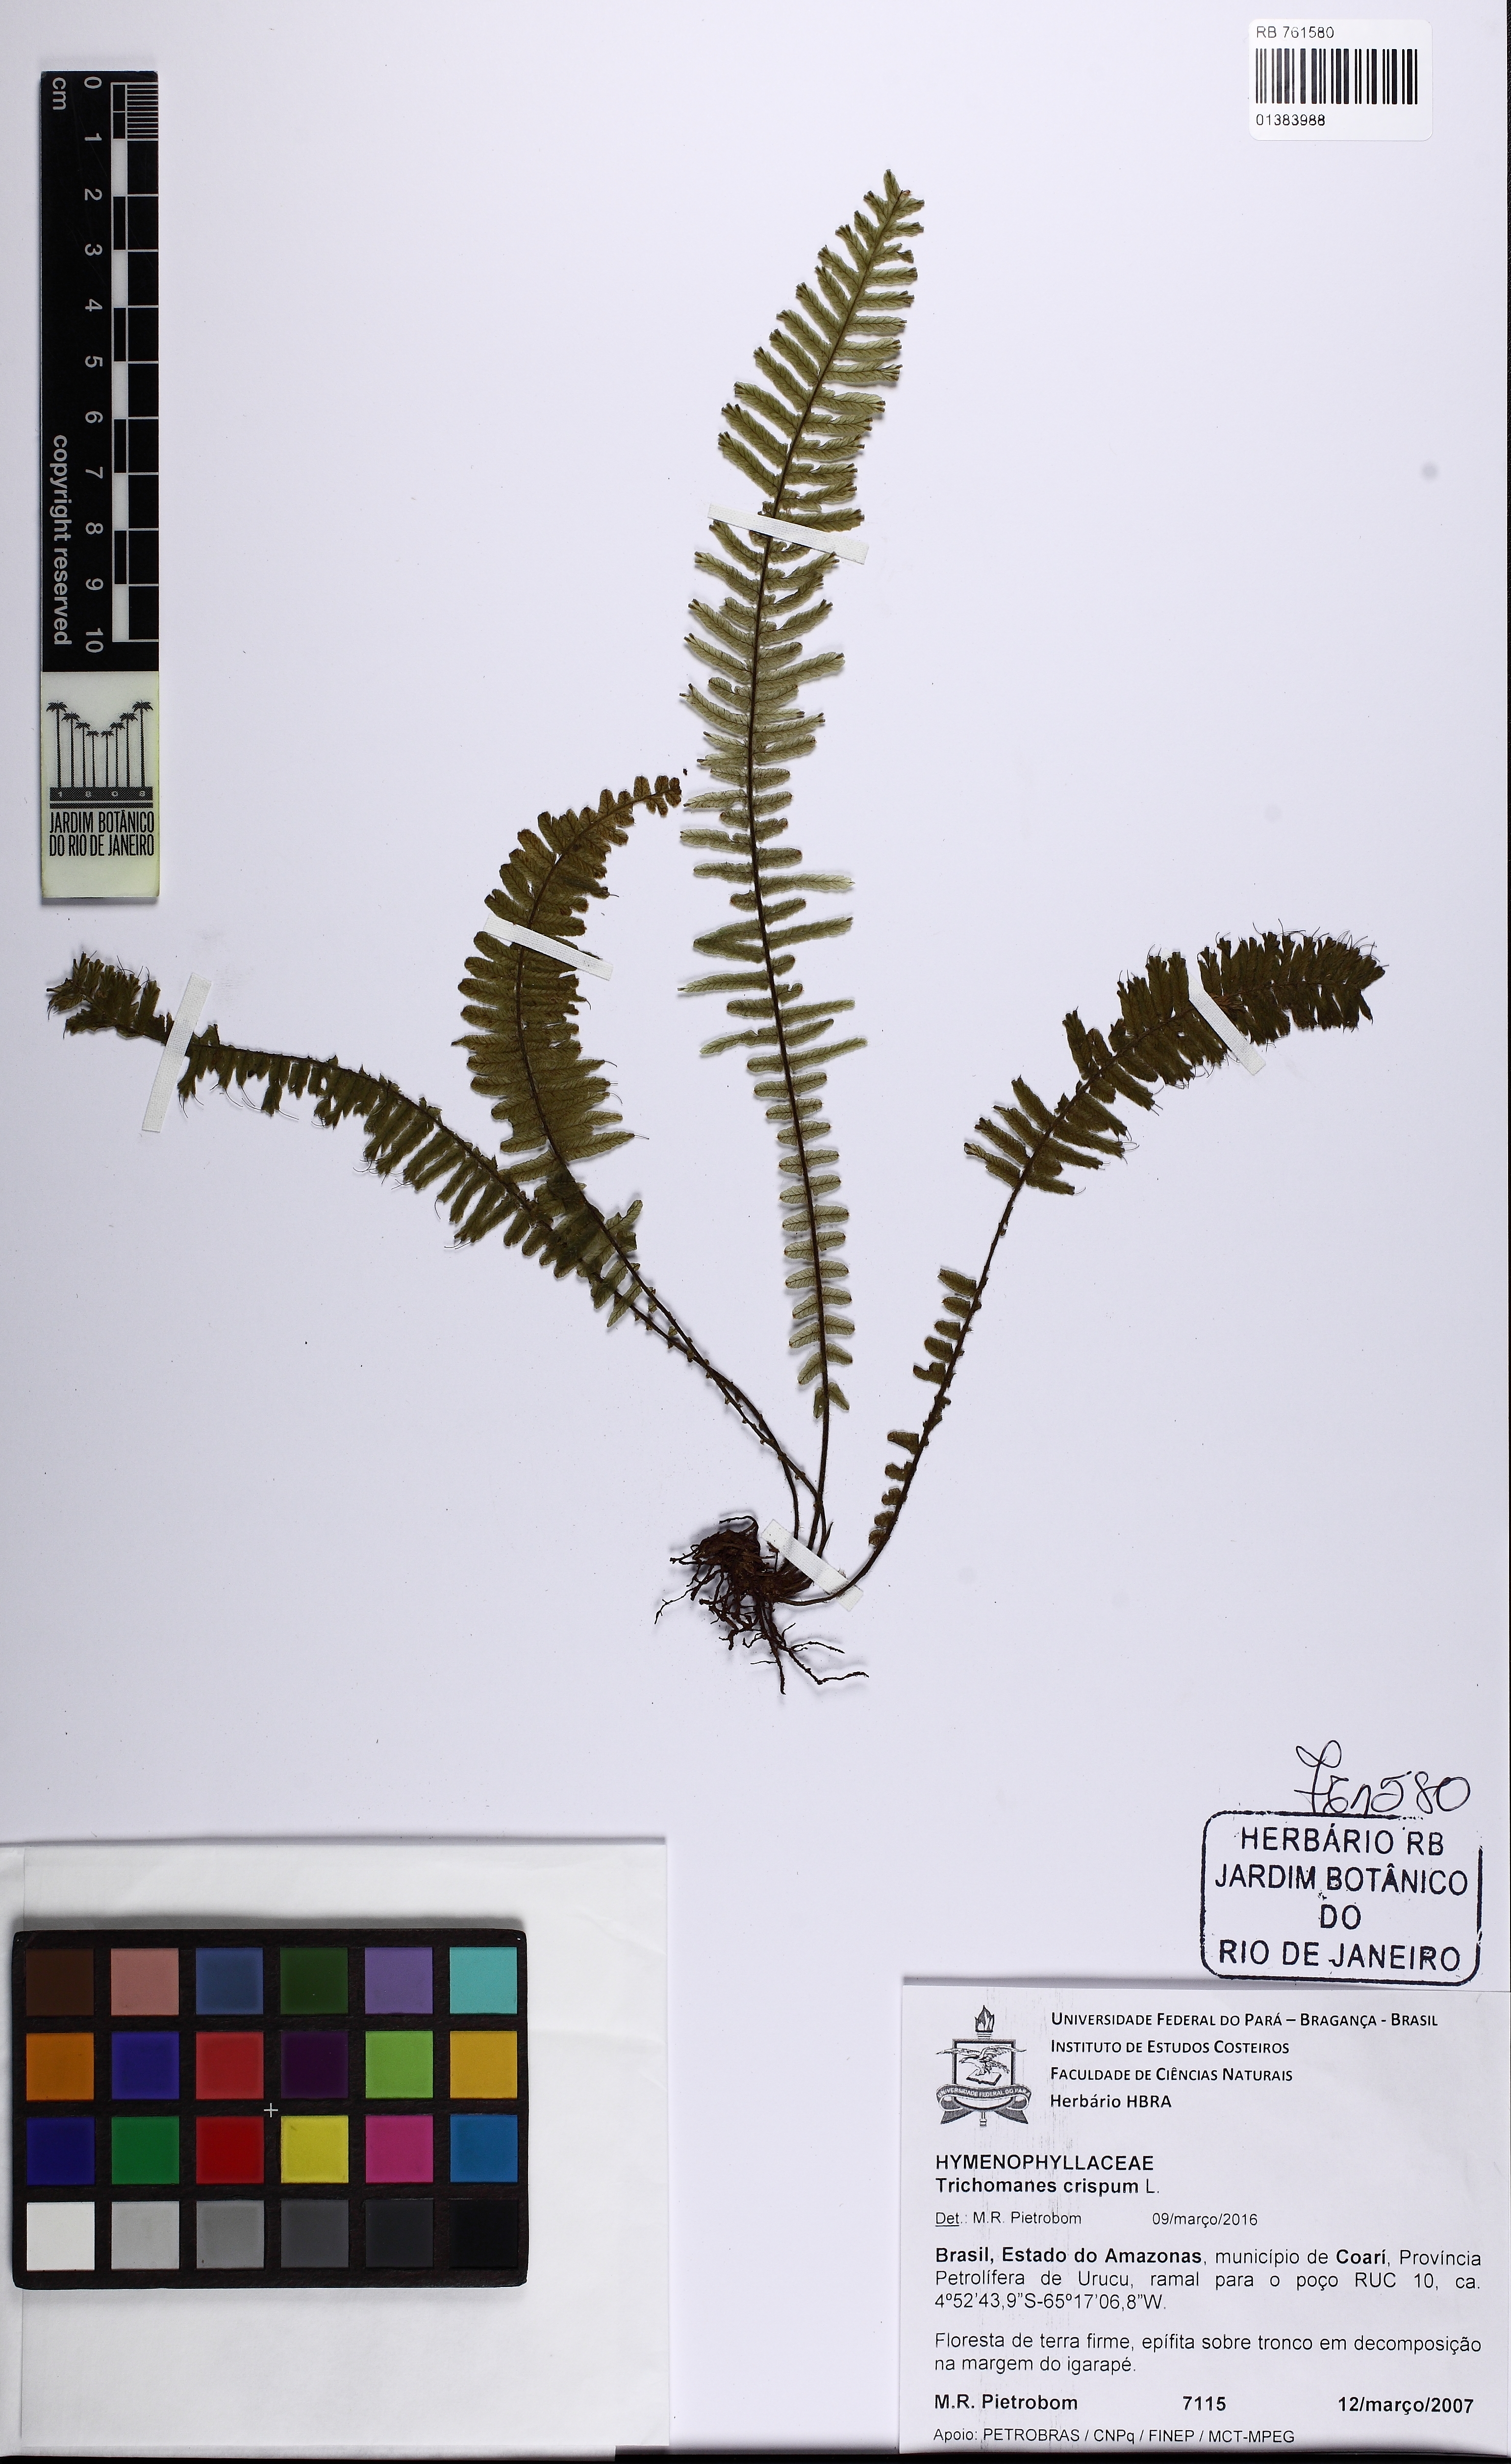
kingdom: Plantae
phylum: Tracheophyta
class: Polypodiopsida
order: Hymenophyllales
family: Hymenophyllaceae
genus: Trichomanes
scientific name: Trichomanes crispum
